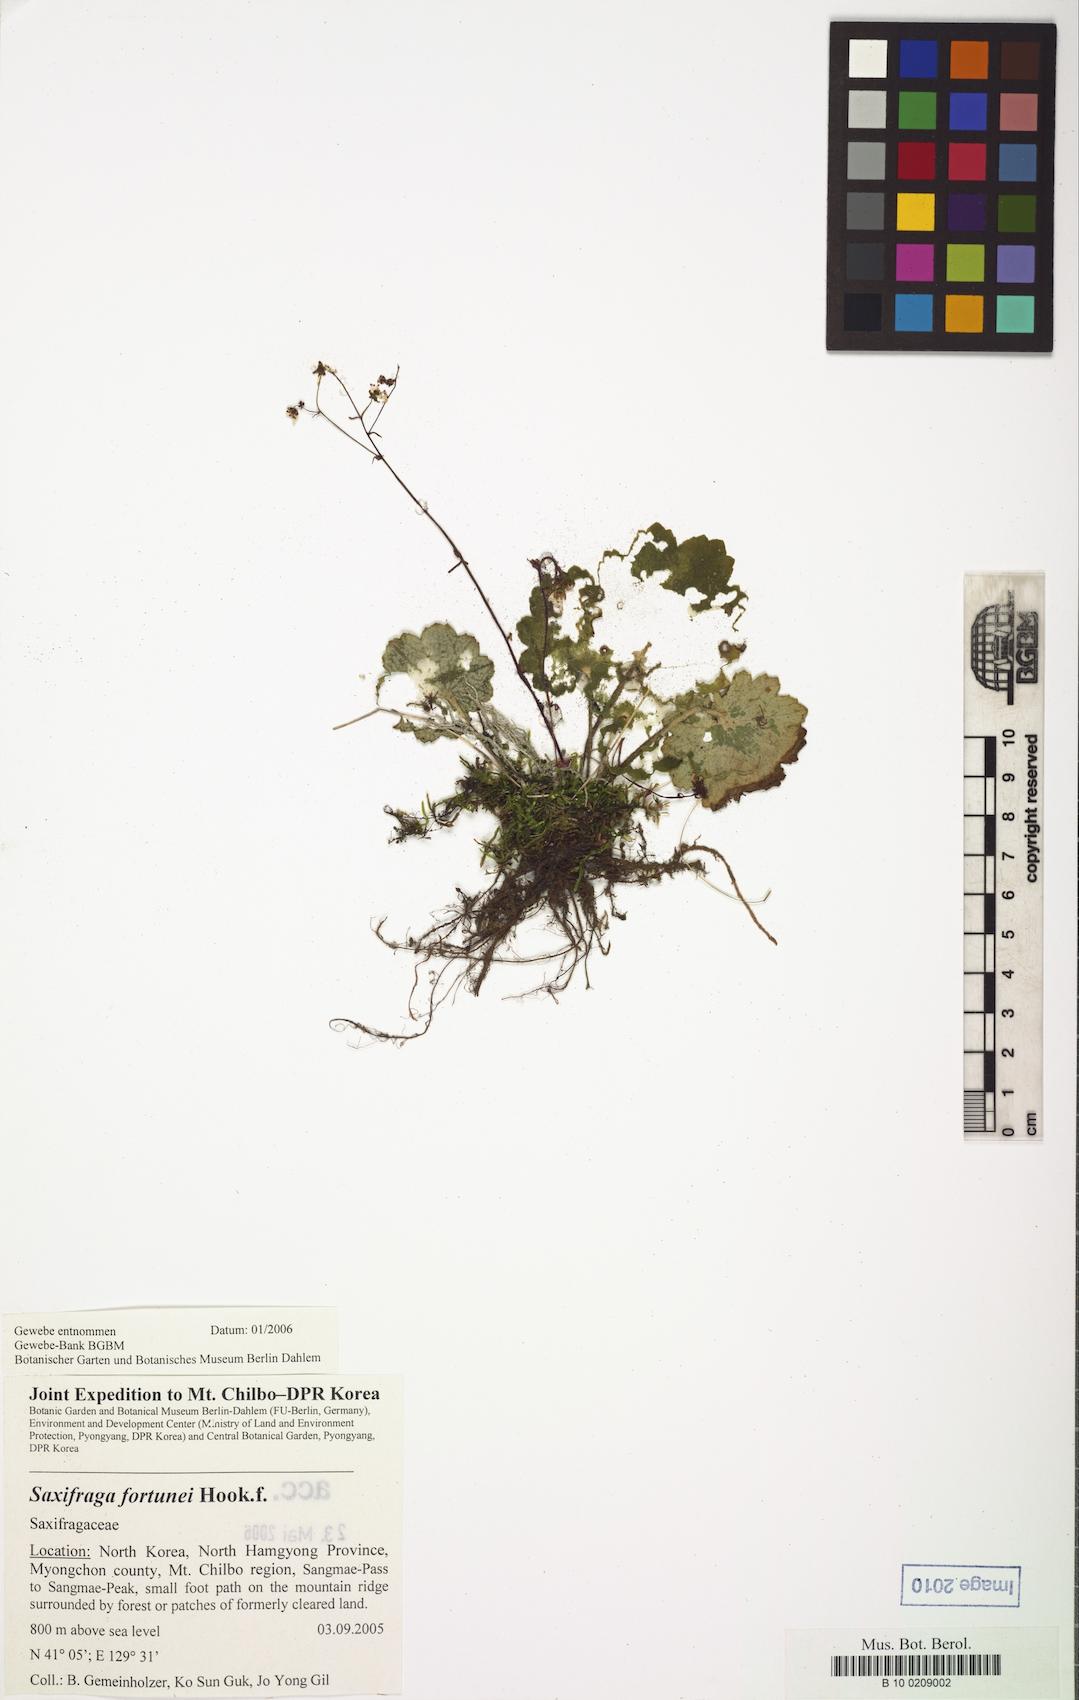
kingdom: Plantae
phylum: Tracheophyta
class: Magnoliopsida
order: Saxifragales
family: Saxifragaceae
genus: Saxifraga
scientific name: Saxifraga fortunei
